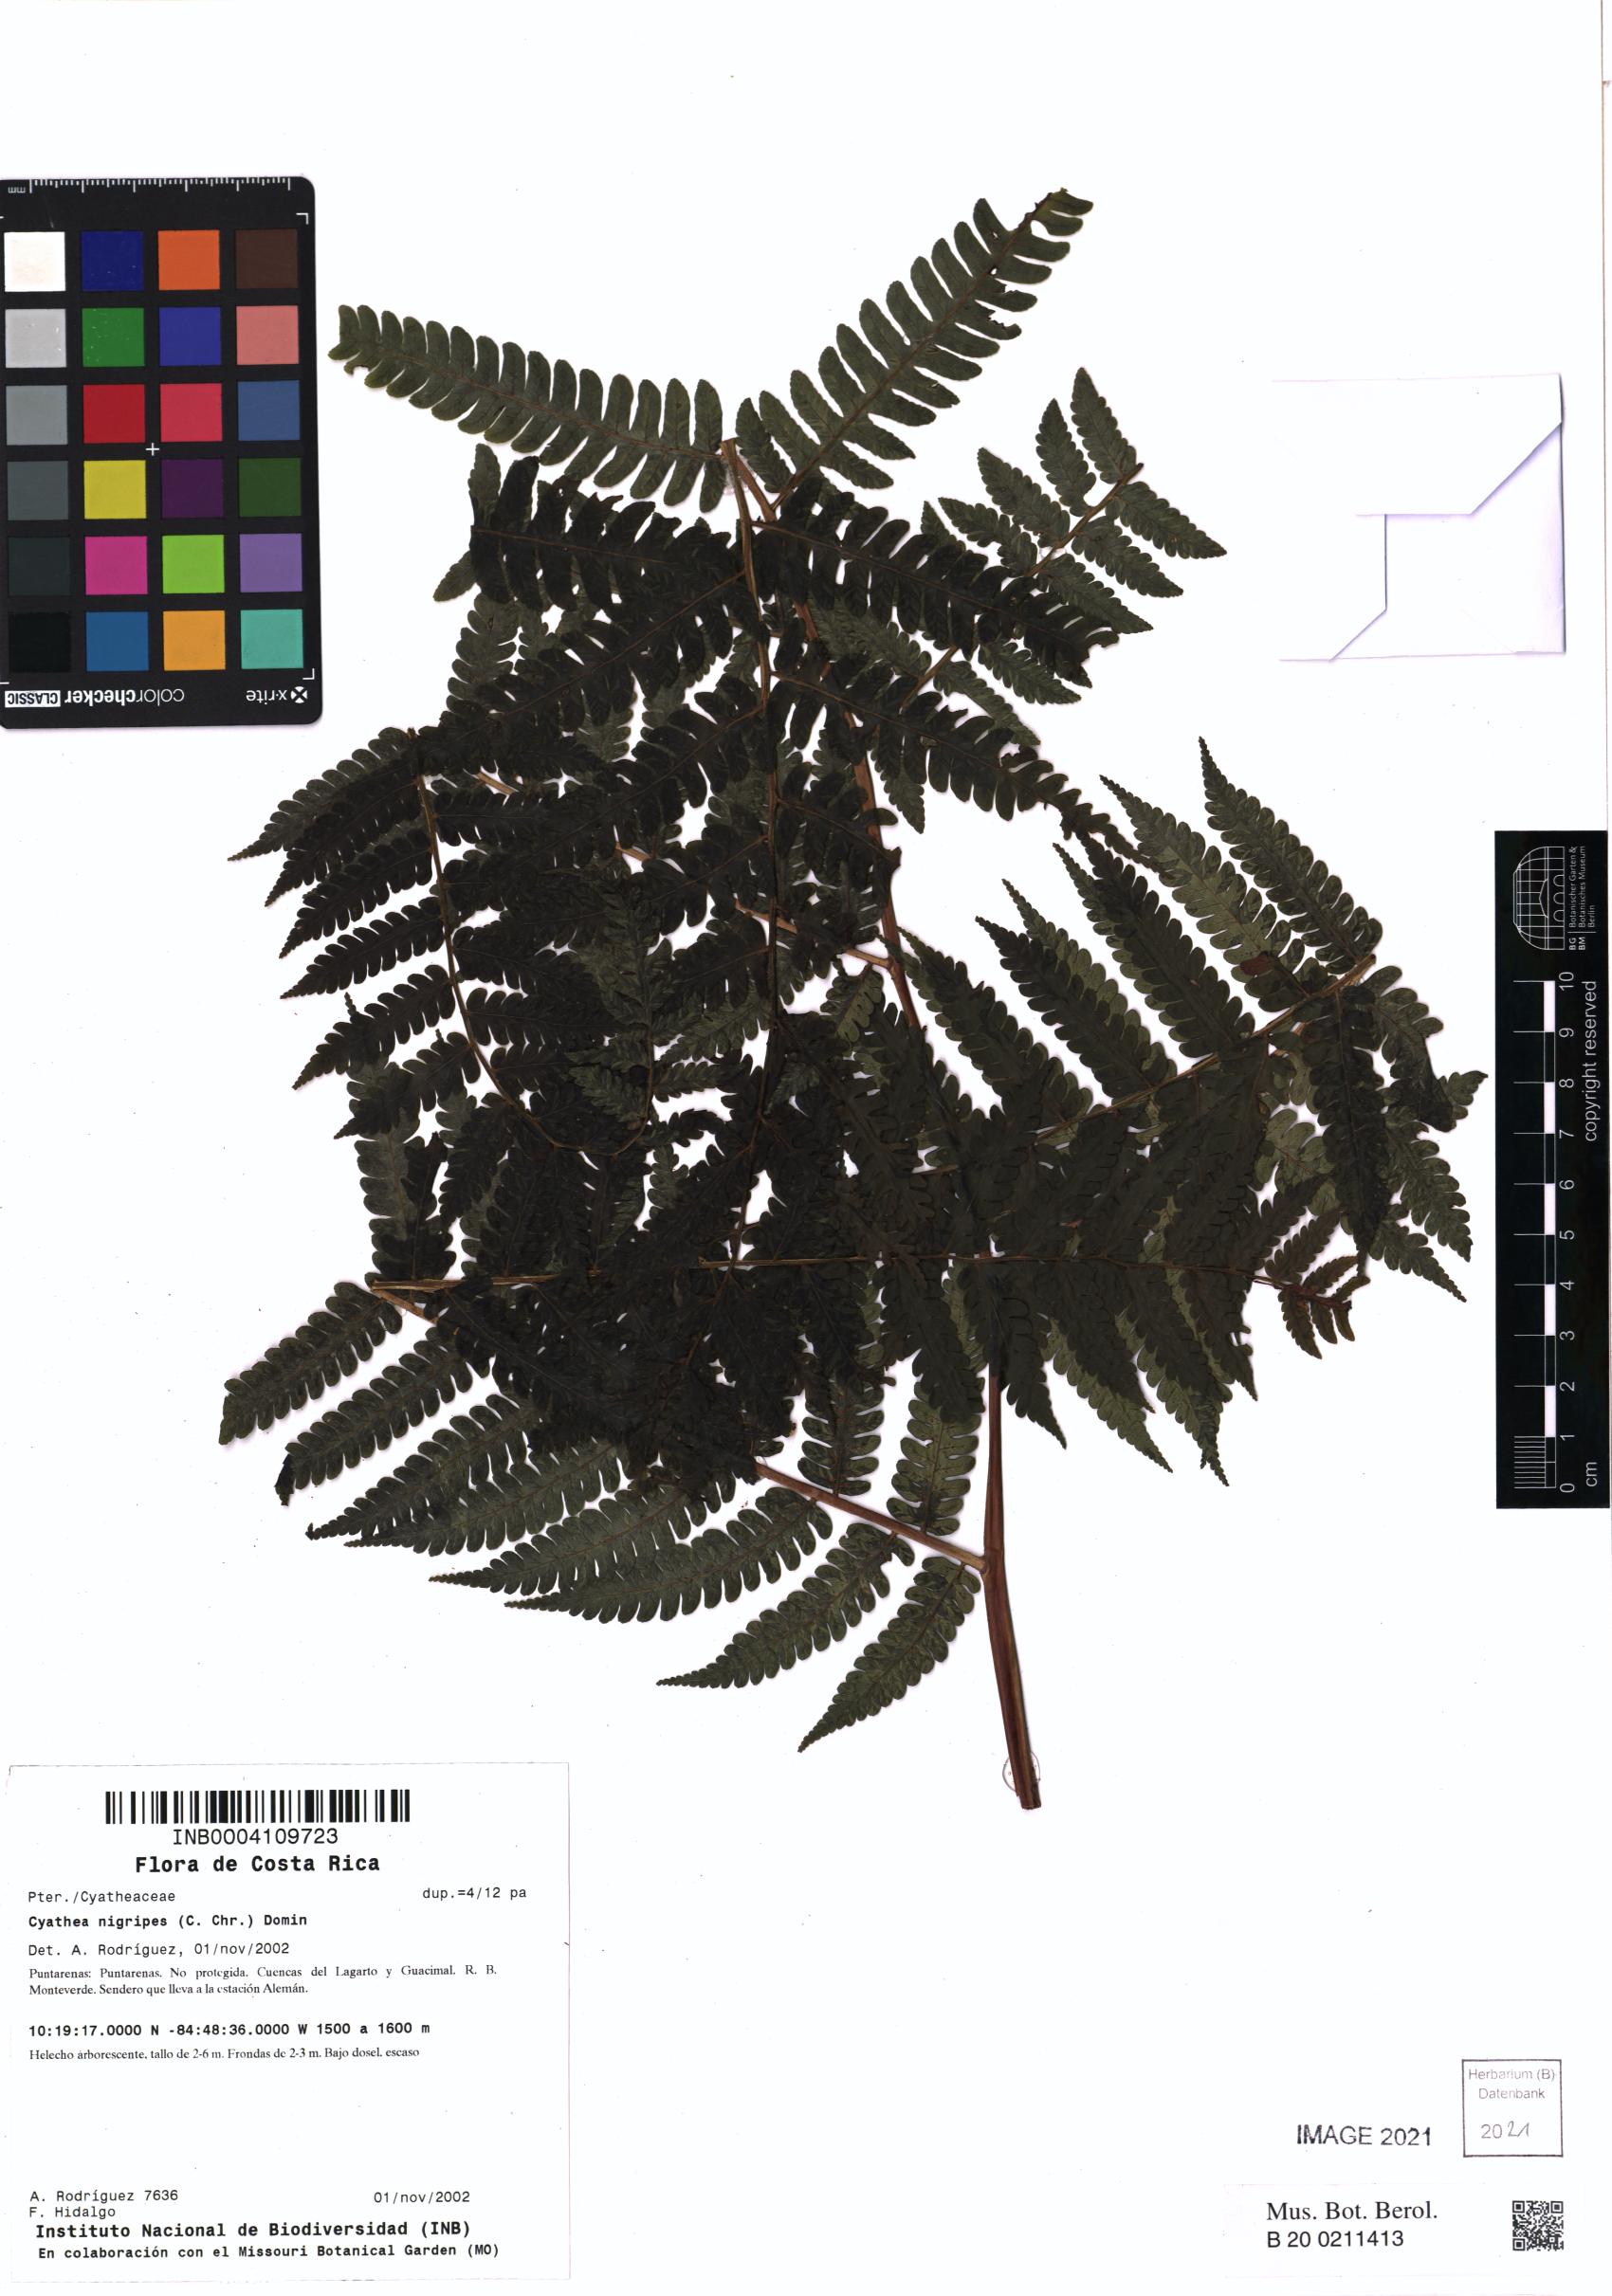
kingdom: Plantae
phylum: Tracheophyta
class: Polypodiopsida
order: Cyatheales
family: Cyatheaceae
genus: Cyathea
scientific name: Cyathea nigripes
